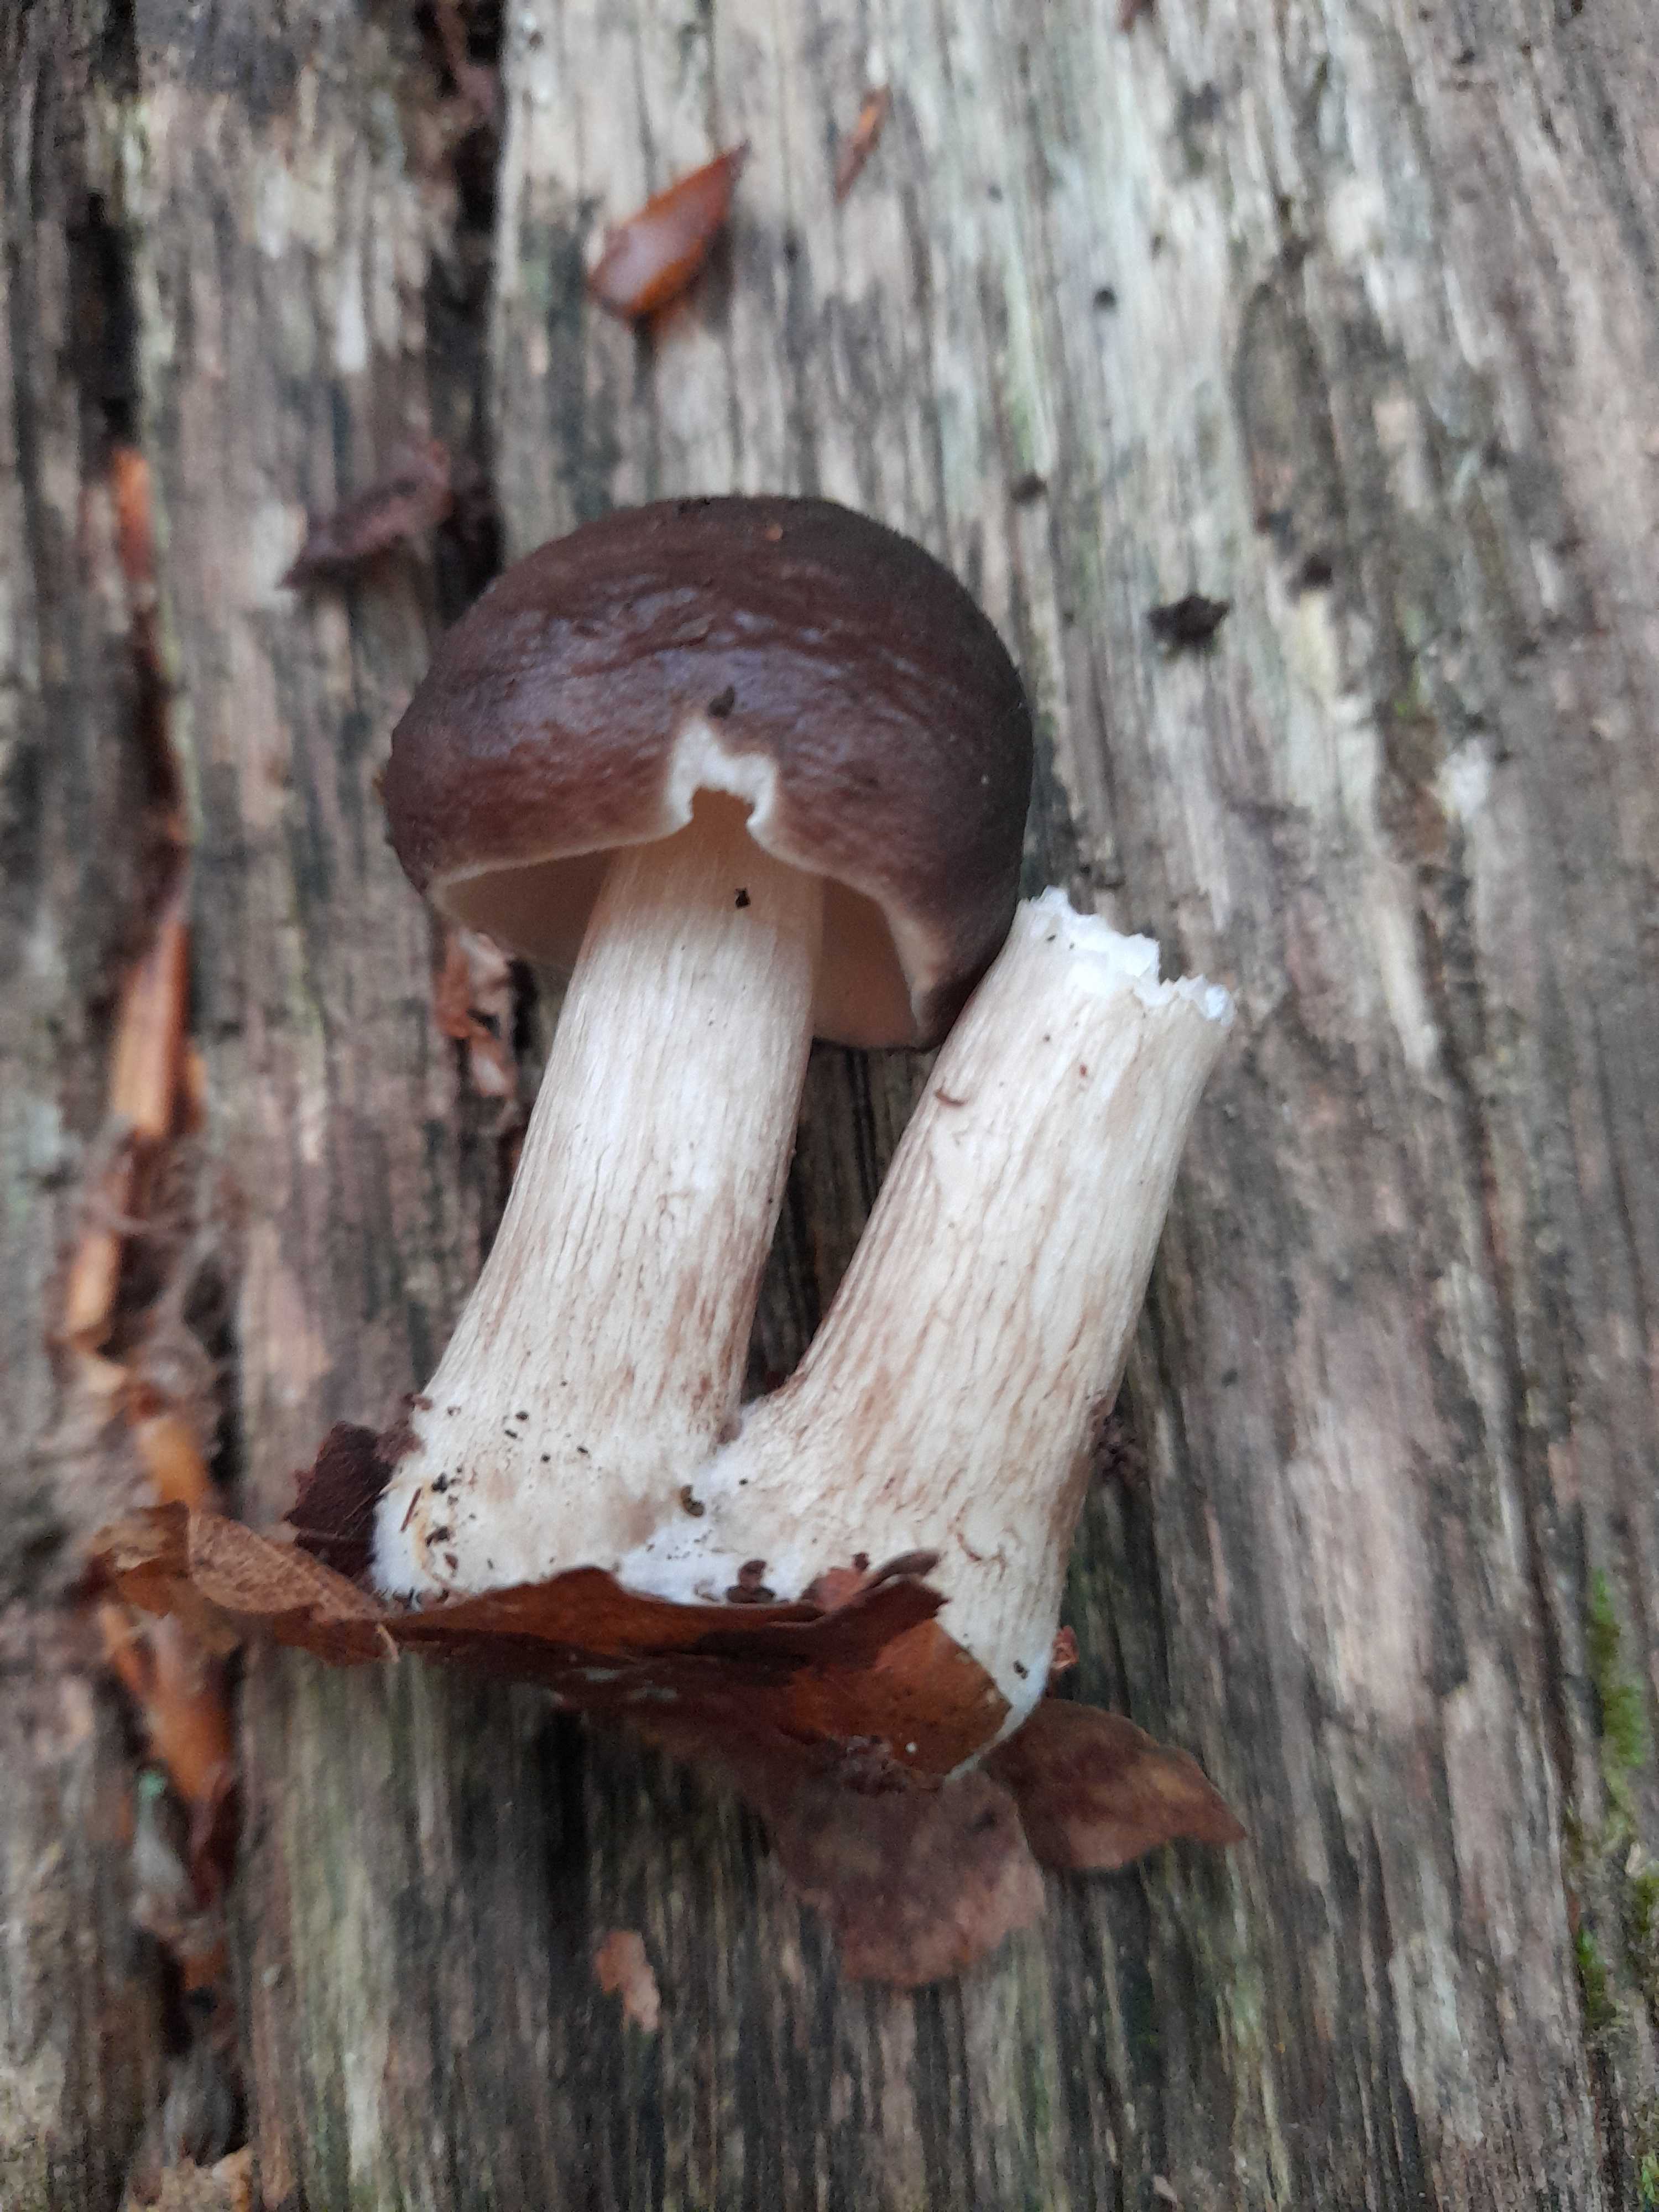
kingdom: Fungi
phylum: Basidiomycota
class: Agaricomycetes
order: Agaricales
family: Pluteaceae
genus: Pluteus
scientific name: Pluteus cervinus
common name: sodfarvet skærmhat
